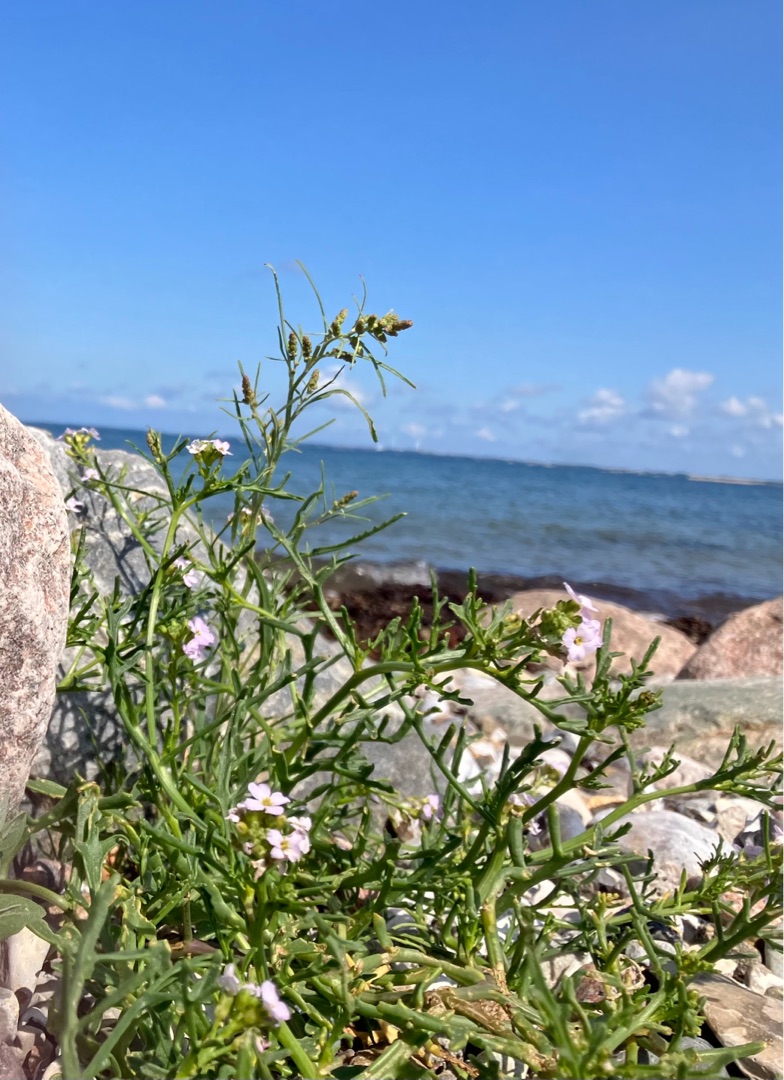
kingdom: Plantae
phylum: Tracheophyta
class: Magnoliopsida
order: Brassicales
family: Brassicaceae
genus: Cakile
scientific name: Cakile maritima
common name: Strandsennep
